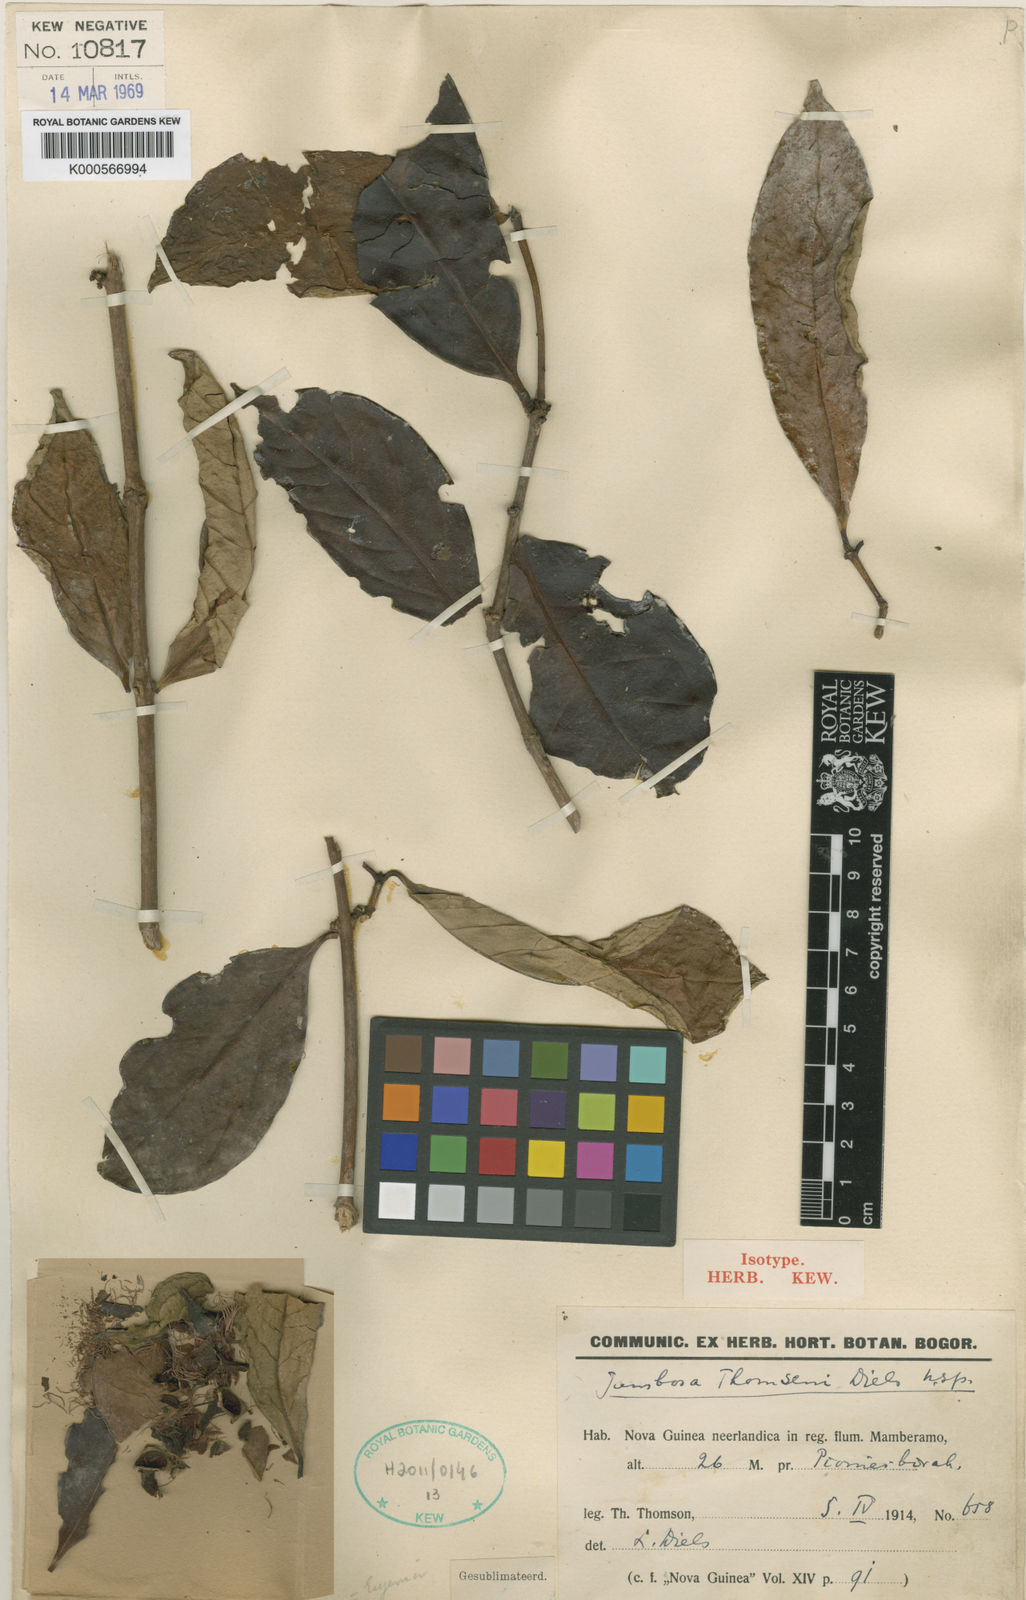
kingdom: Plantae
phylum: Tracheophyta
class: Magnoliopsida
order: Myrtales
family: Myrtaceae
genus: Syzygium
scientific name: Syzygium thomsenii
